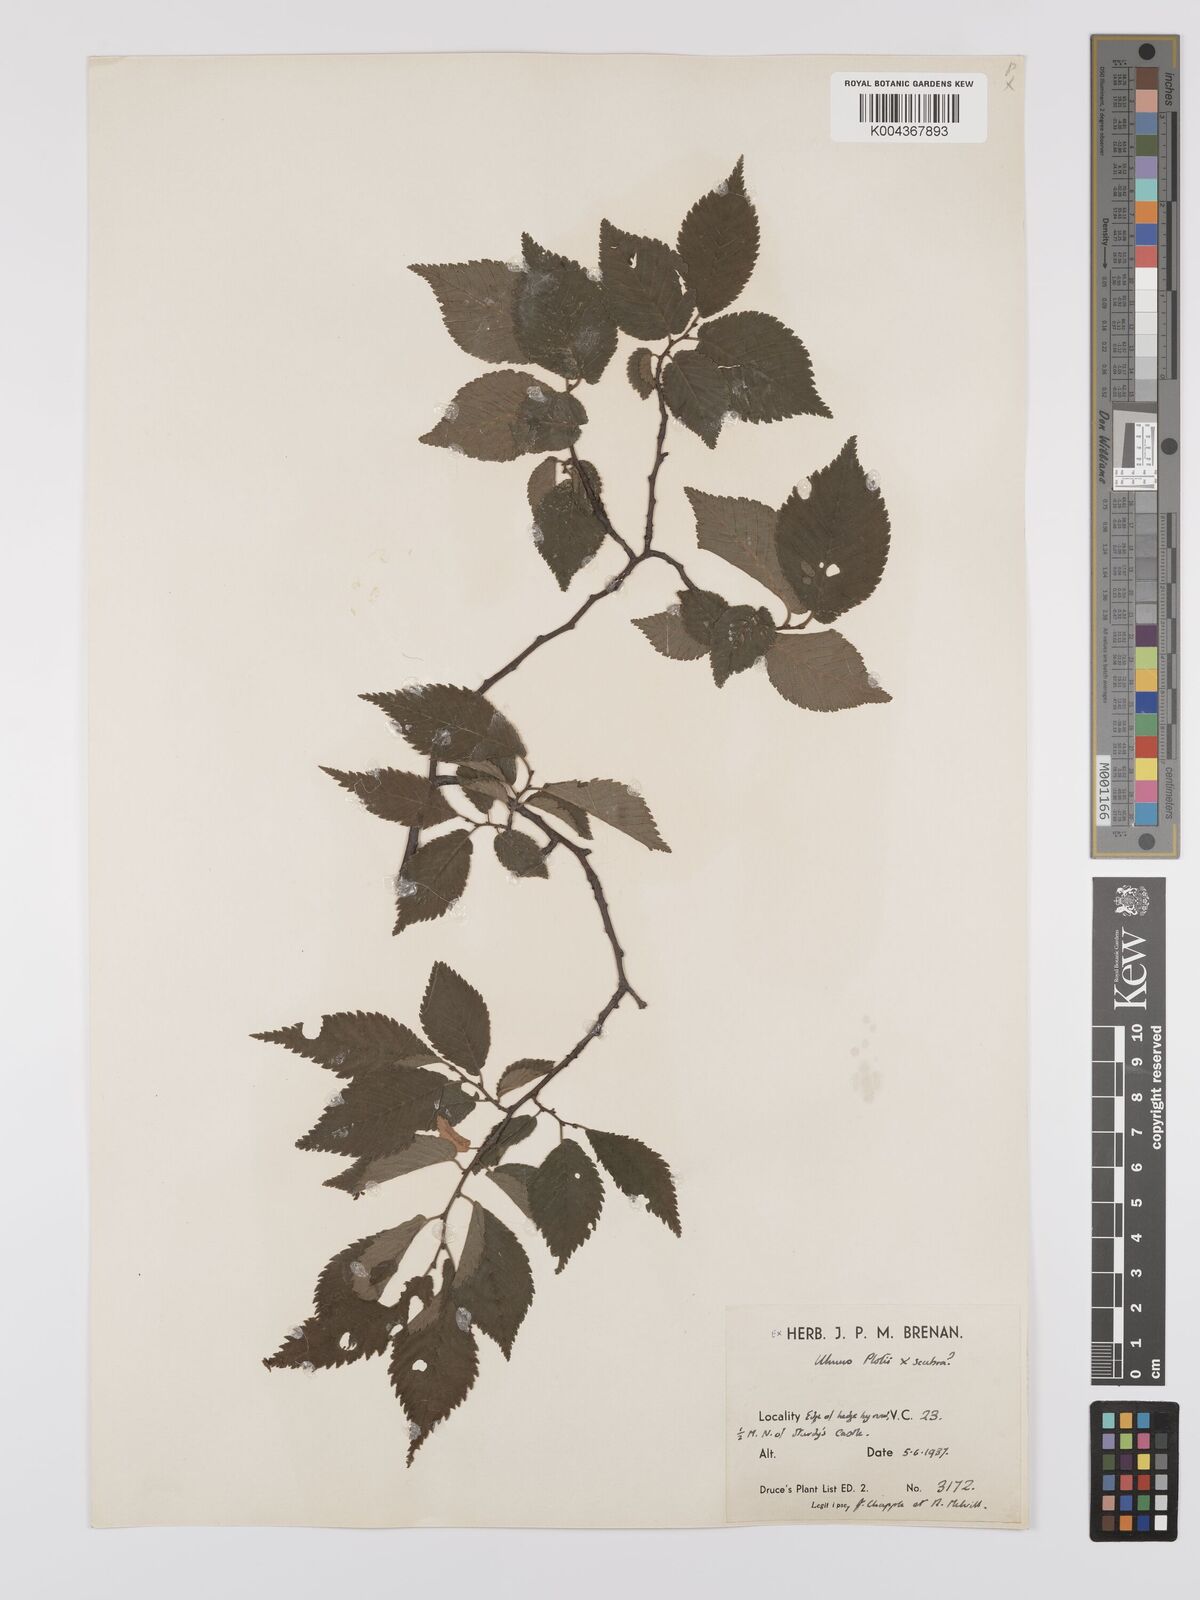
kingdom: Plantae
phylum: Tracheophyta
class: Magnoliopsida
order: Rosales
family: Ulmaceae
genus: Ulmus
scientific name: Ulmus glabra
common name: Wych elm
